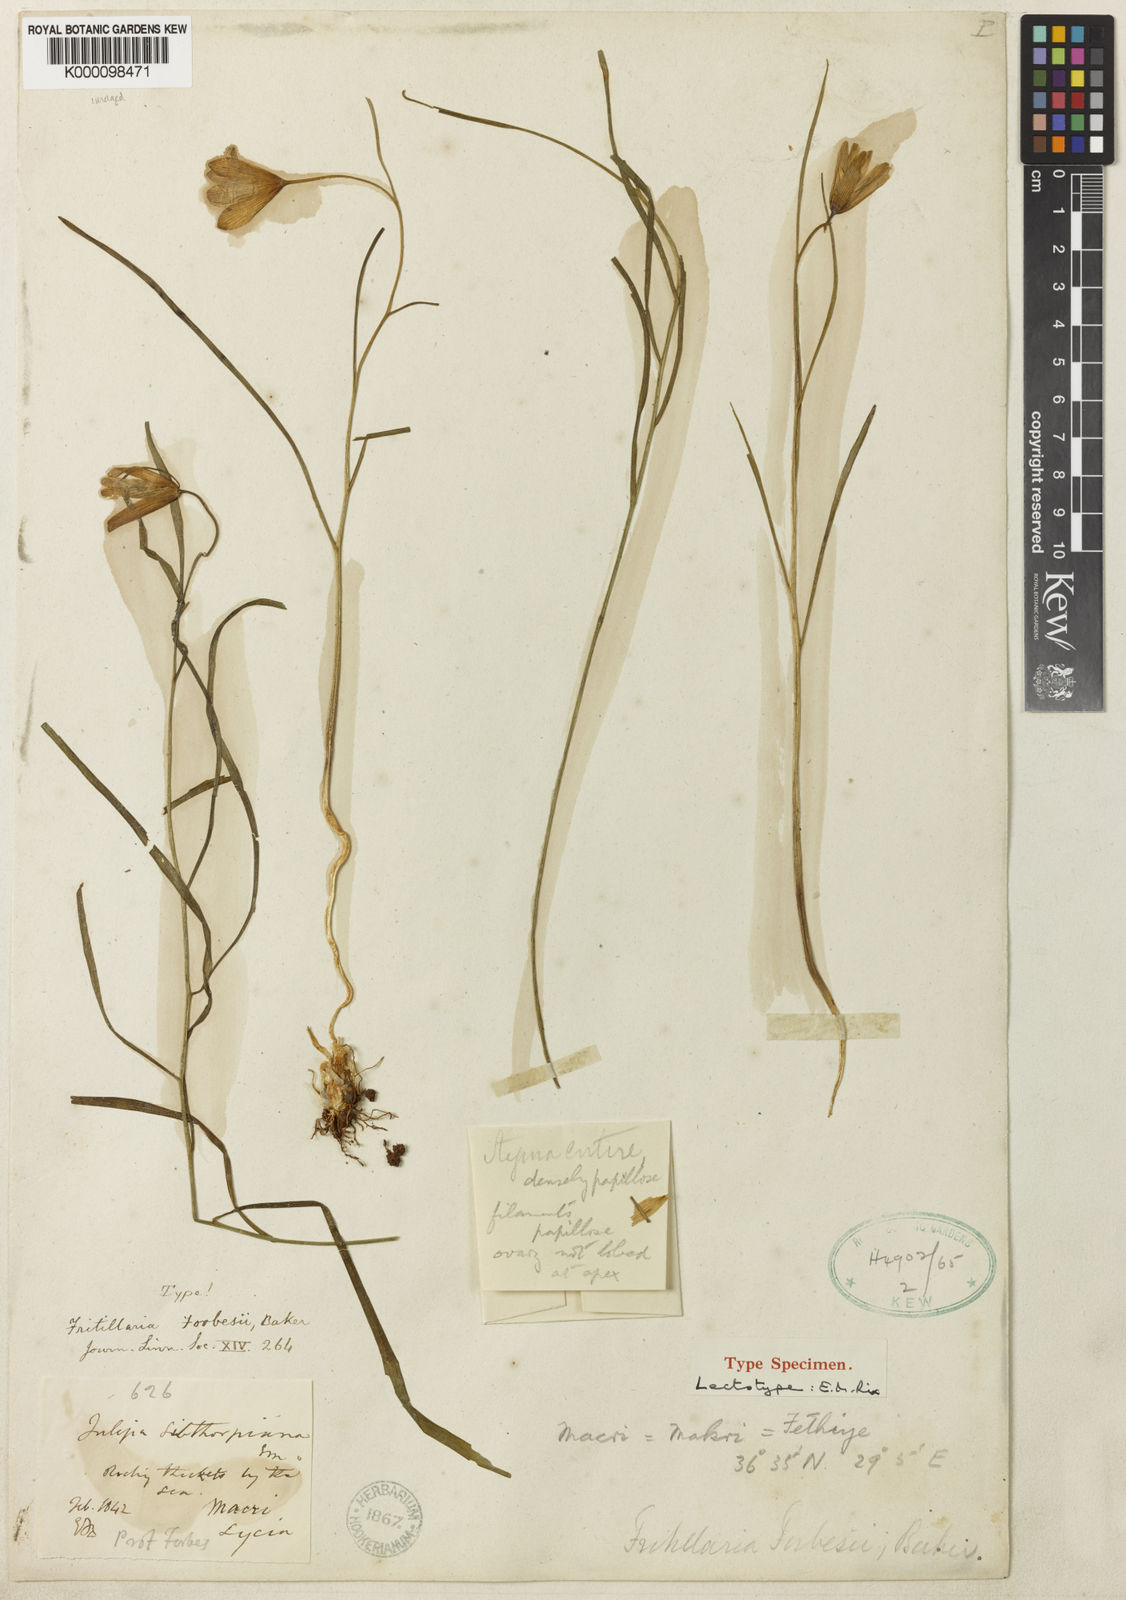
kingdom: Plantae
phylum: Tracheophyta
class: Liliopsida
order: Liliales
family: Liliaceae
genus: Fritillaria
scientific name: Fritillaria forbesii
